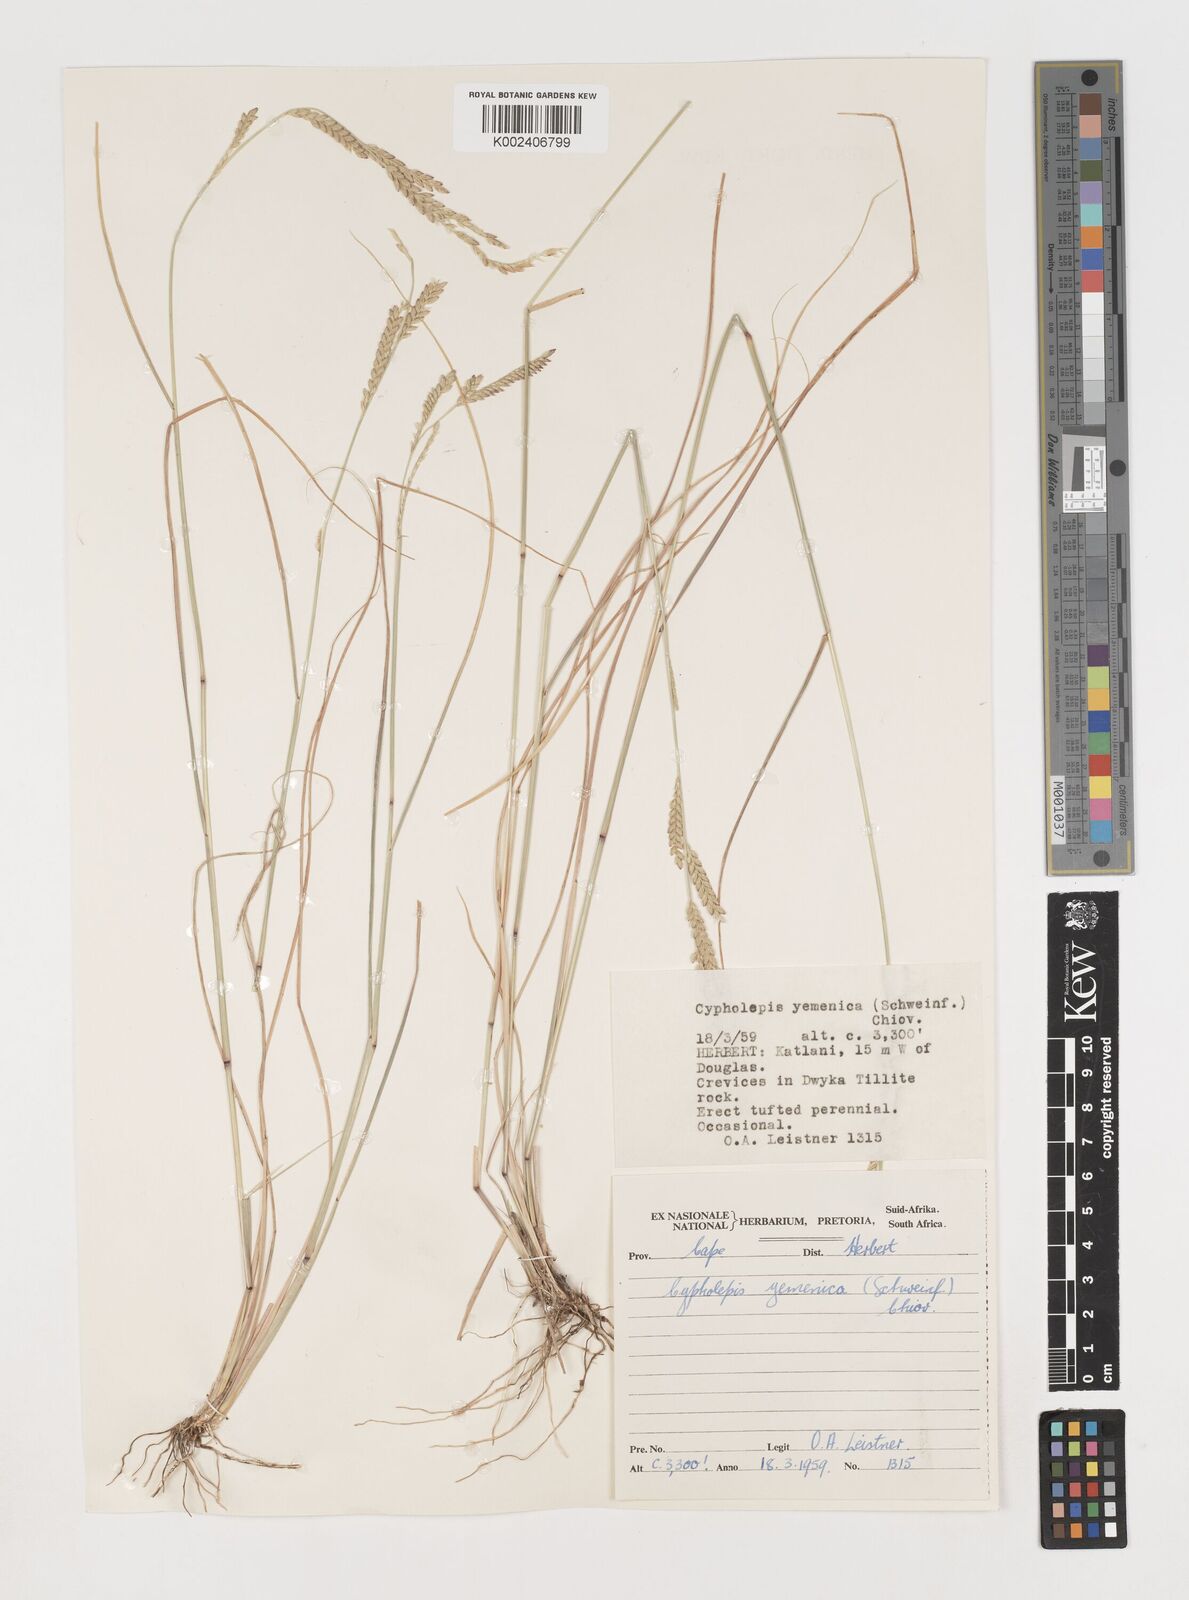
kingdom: Plantae
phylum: Tracheophyta
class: Liliopsida
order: Poales
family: Poaceae
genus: Disakisperma
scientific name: Disakisperma yemenicum
